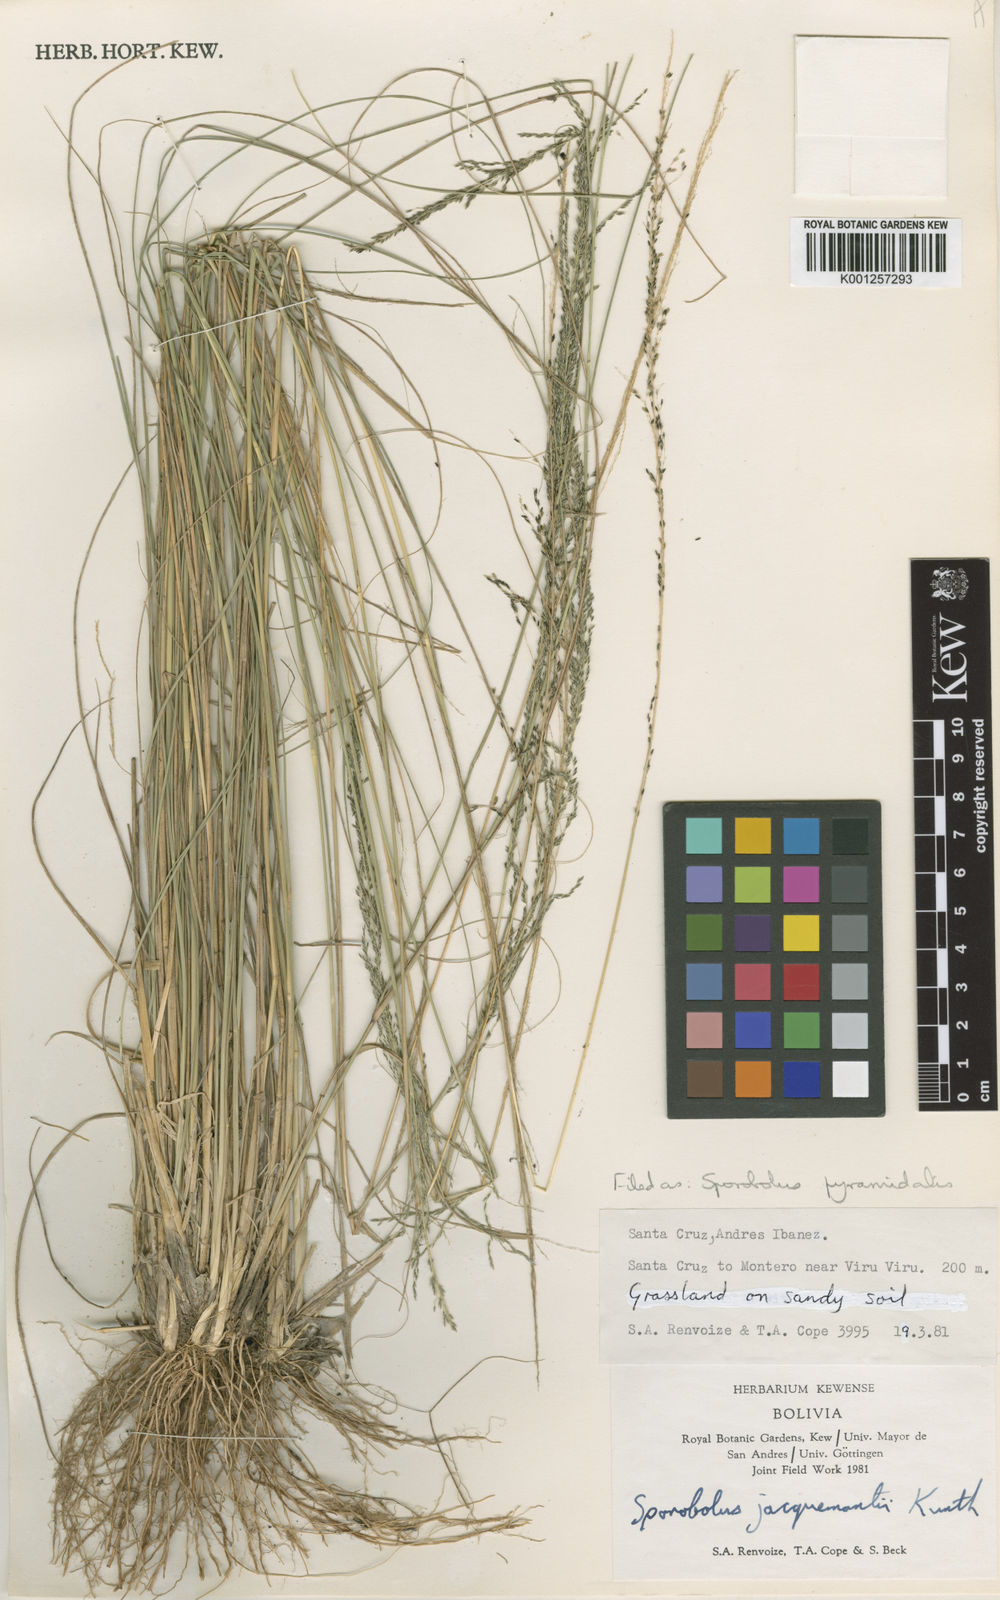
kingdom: Plantae
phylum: Tracheophyta
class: Liliopsida
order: Poales
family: Poaceae
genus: Sporobolus
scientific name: Sporobolus pyramidalis
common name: West indian dropseed
